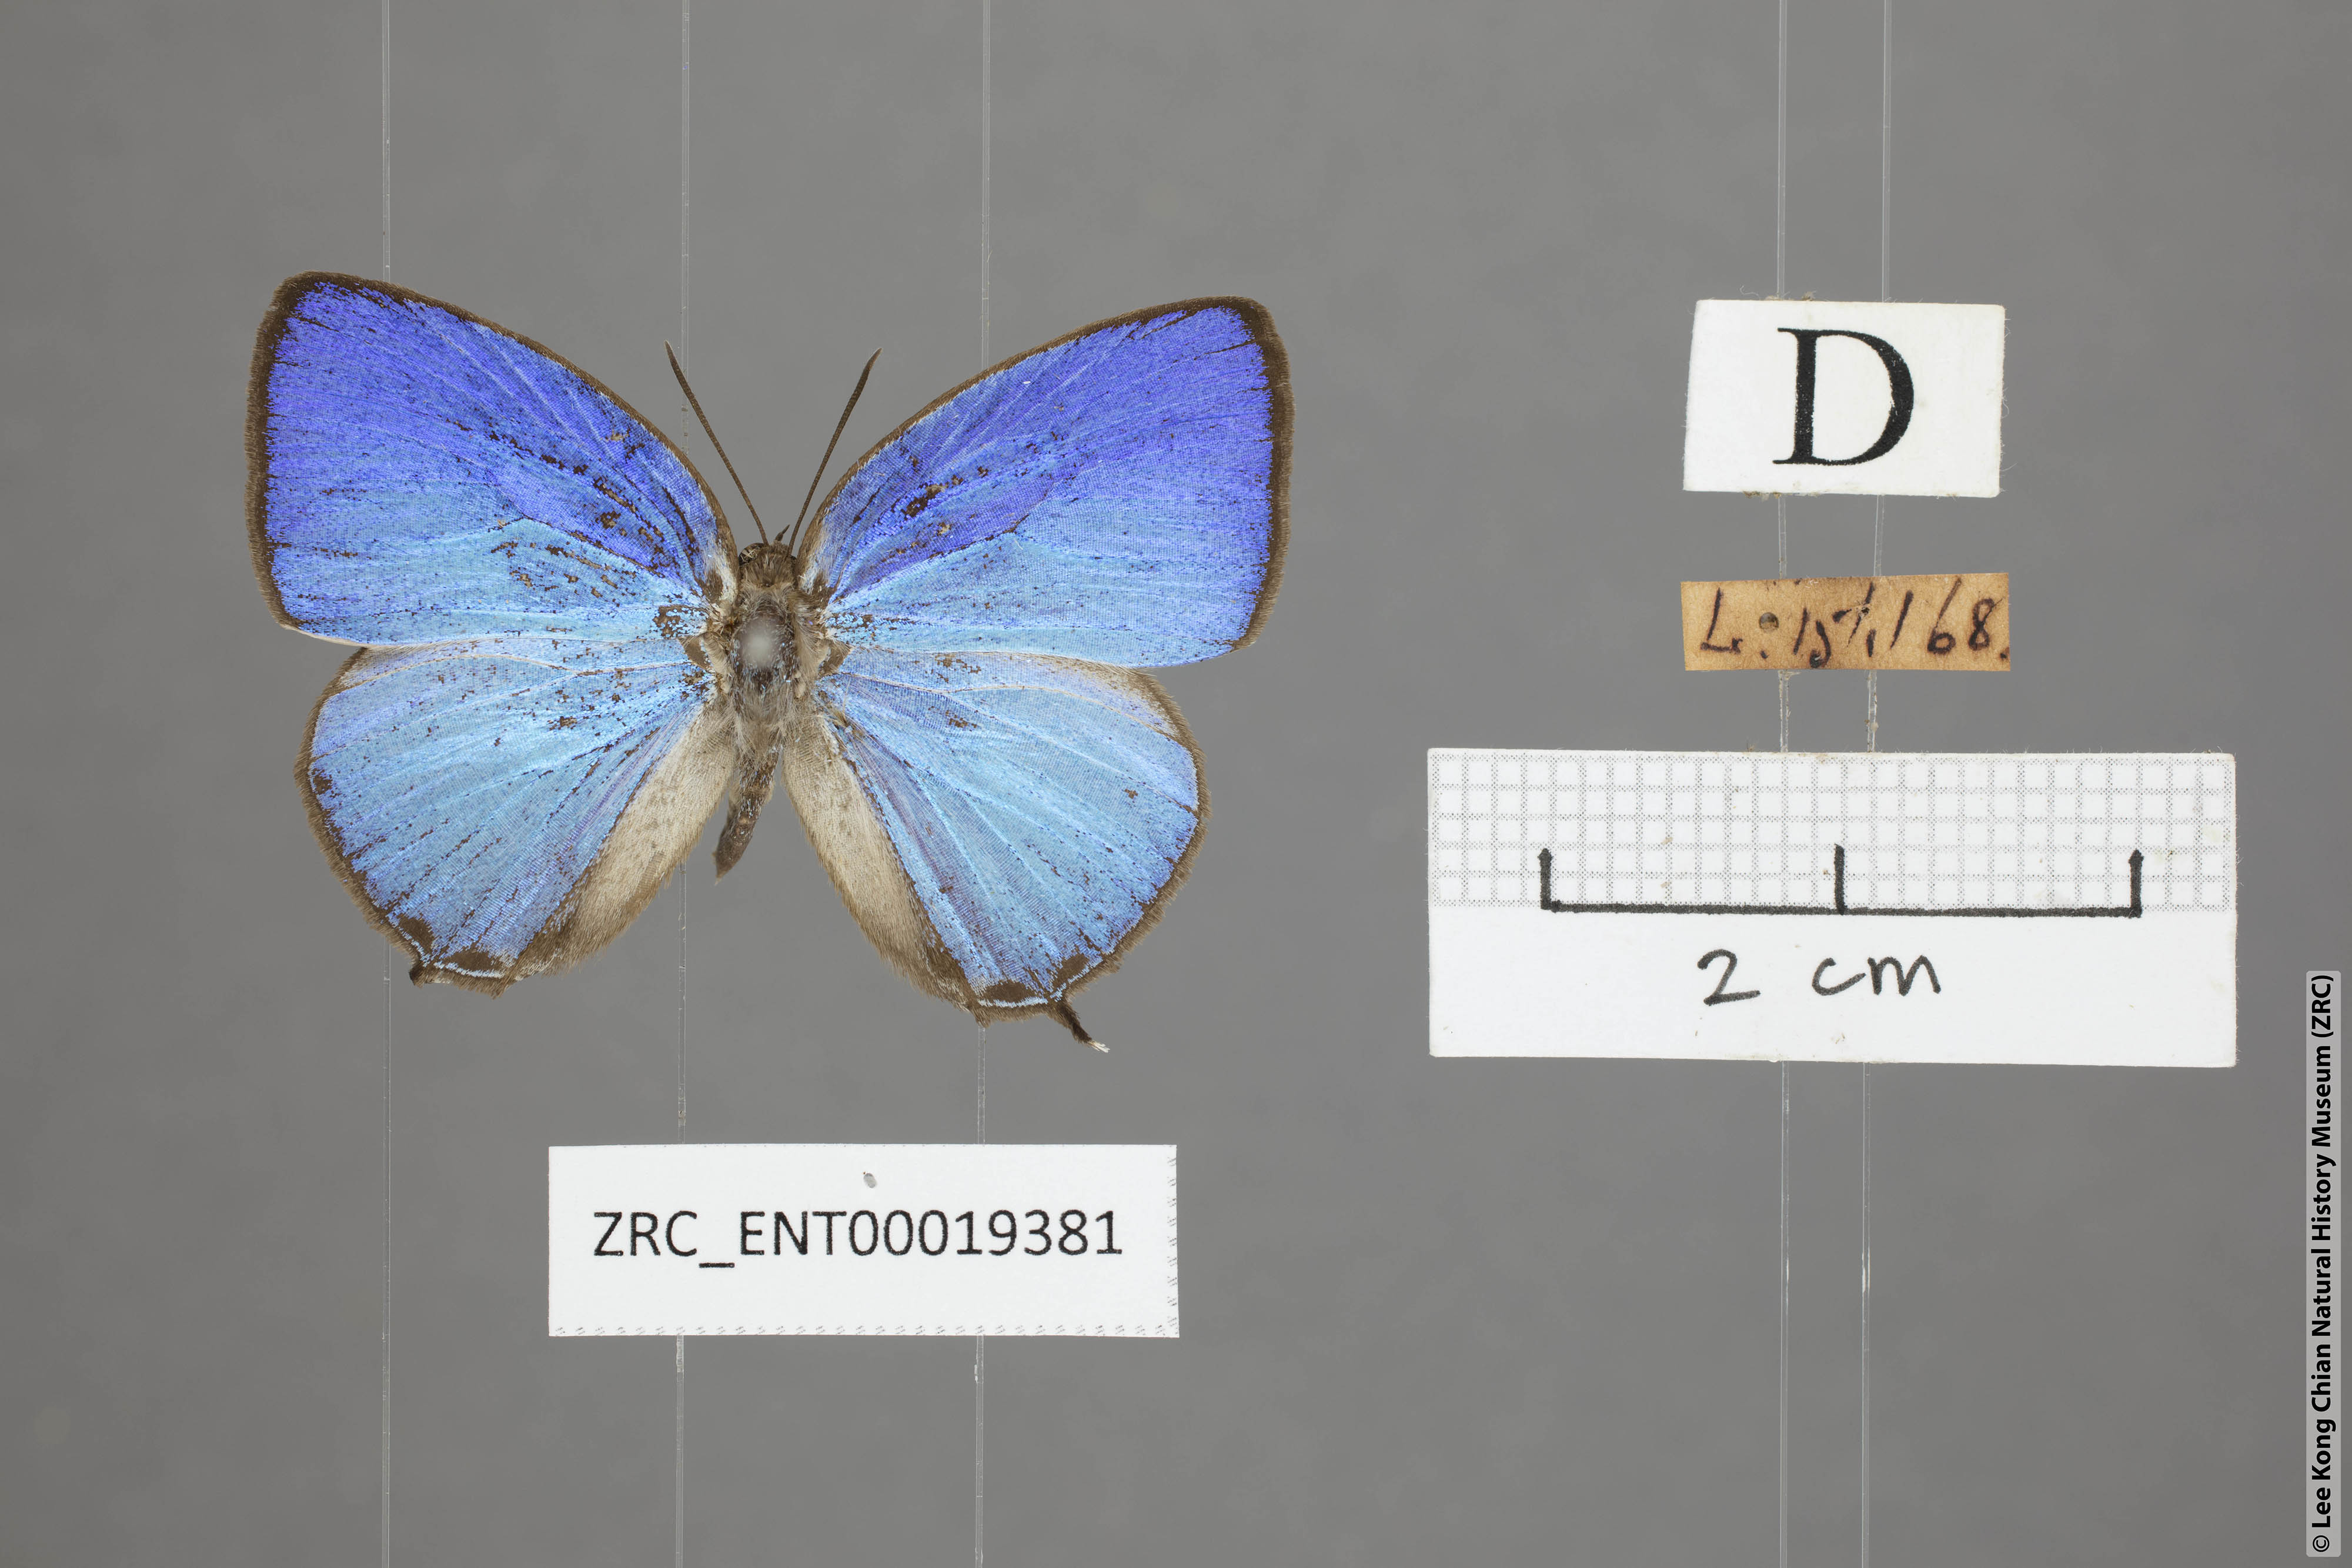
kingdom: Animalia
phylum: Arthropoda
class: Insecta
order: Lepidoptera
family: Lycaenidae
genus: Arhopala
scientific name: Arhopala democritus
